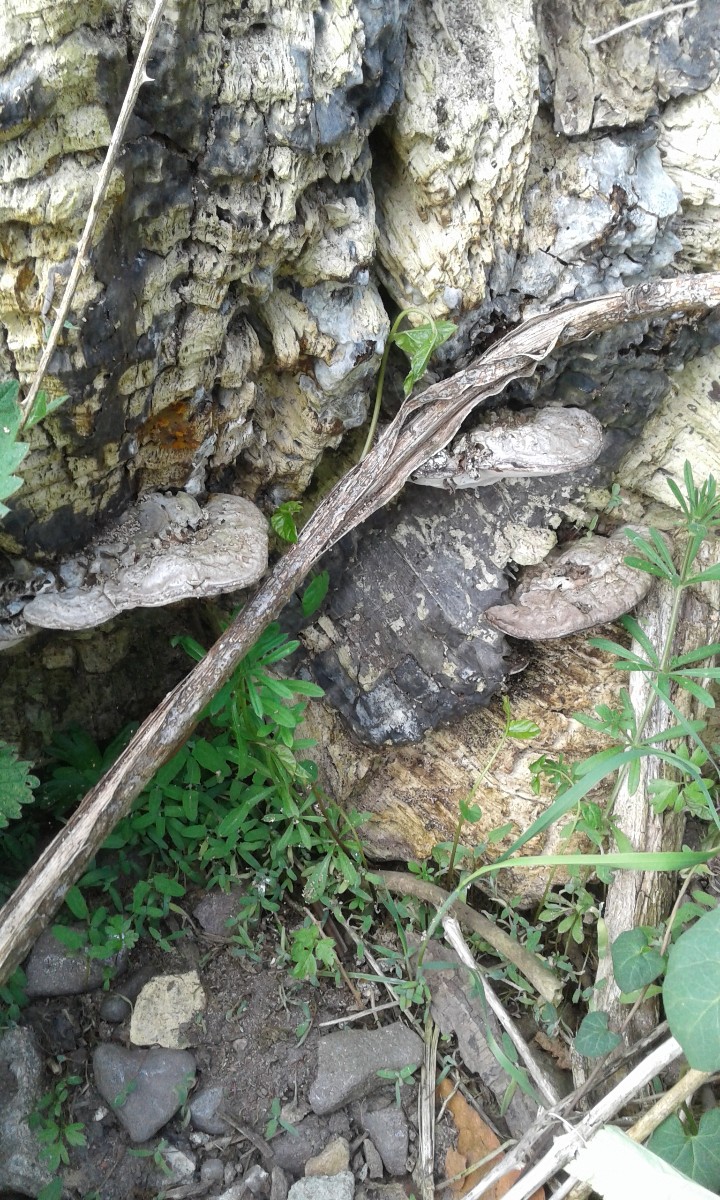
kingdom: Fungi
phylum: Basidiomycota
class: Agaricomycetes
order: Polyporales
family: Polyporaceae
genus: Ganoderma
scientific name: Ganoderma applanatum
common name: flad lakporesvamp
